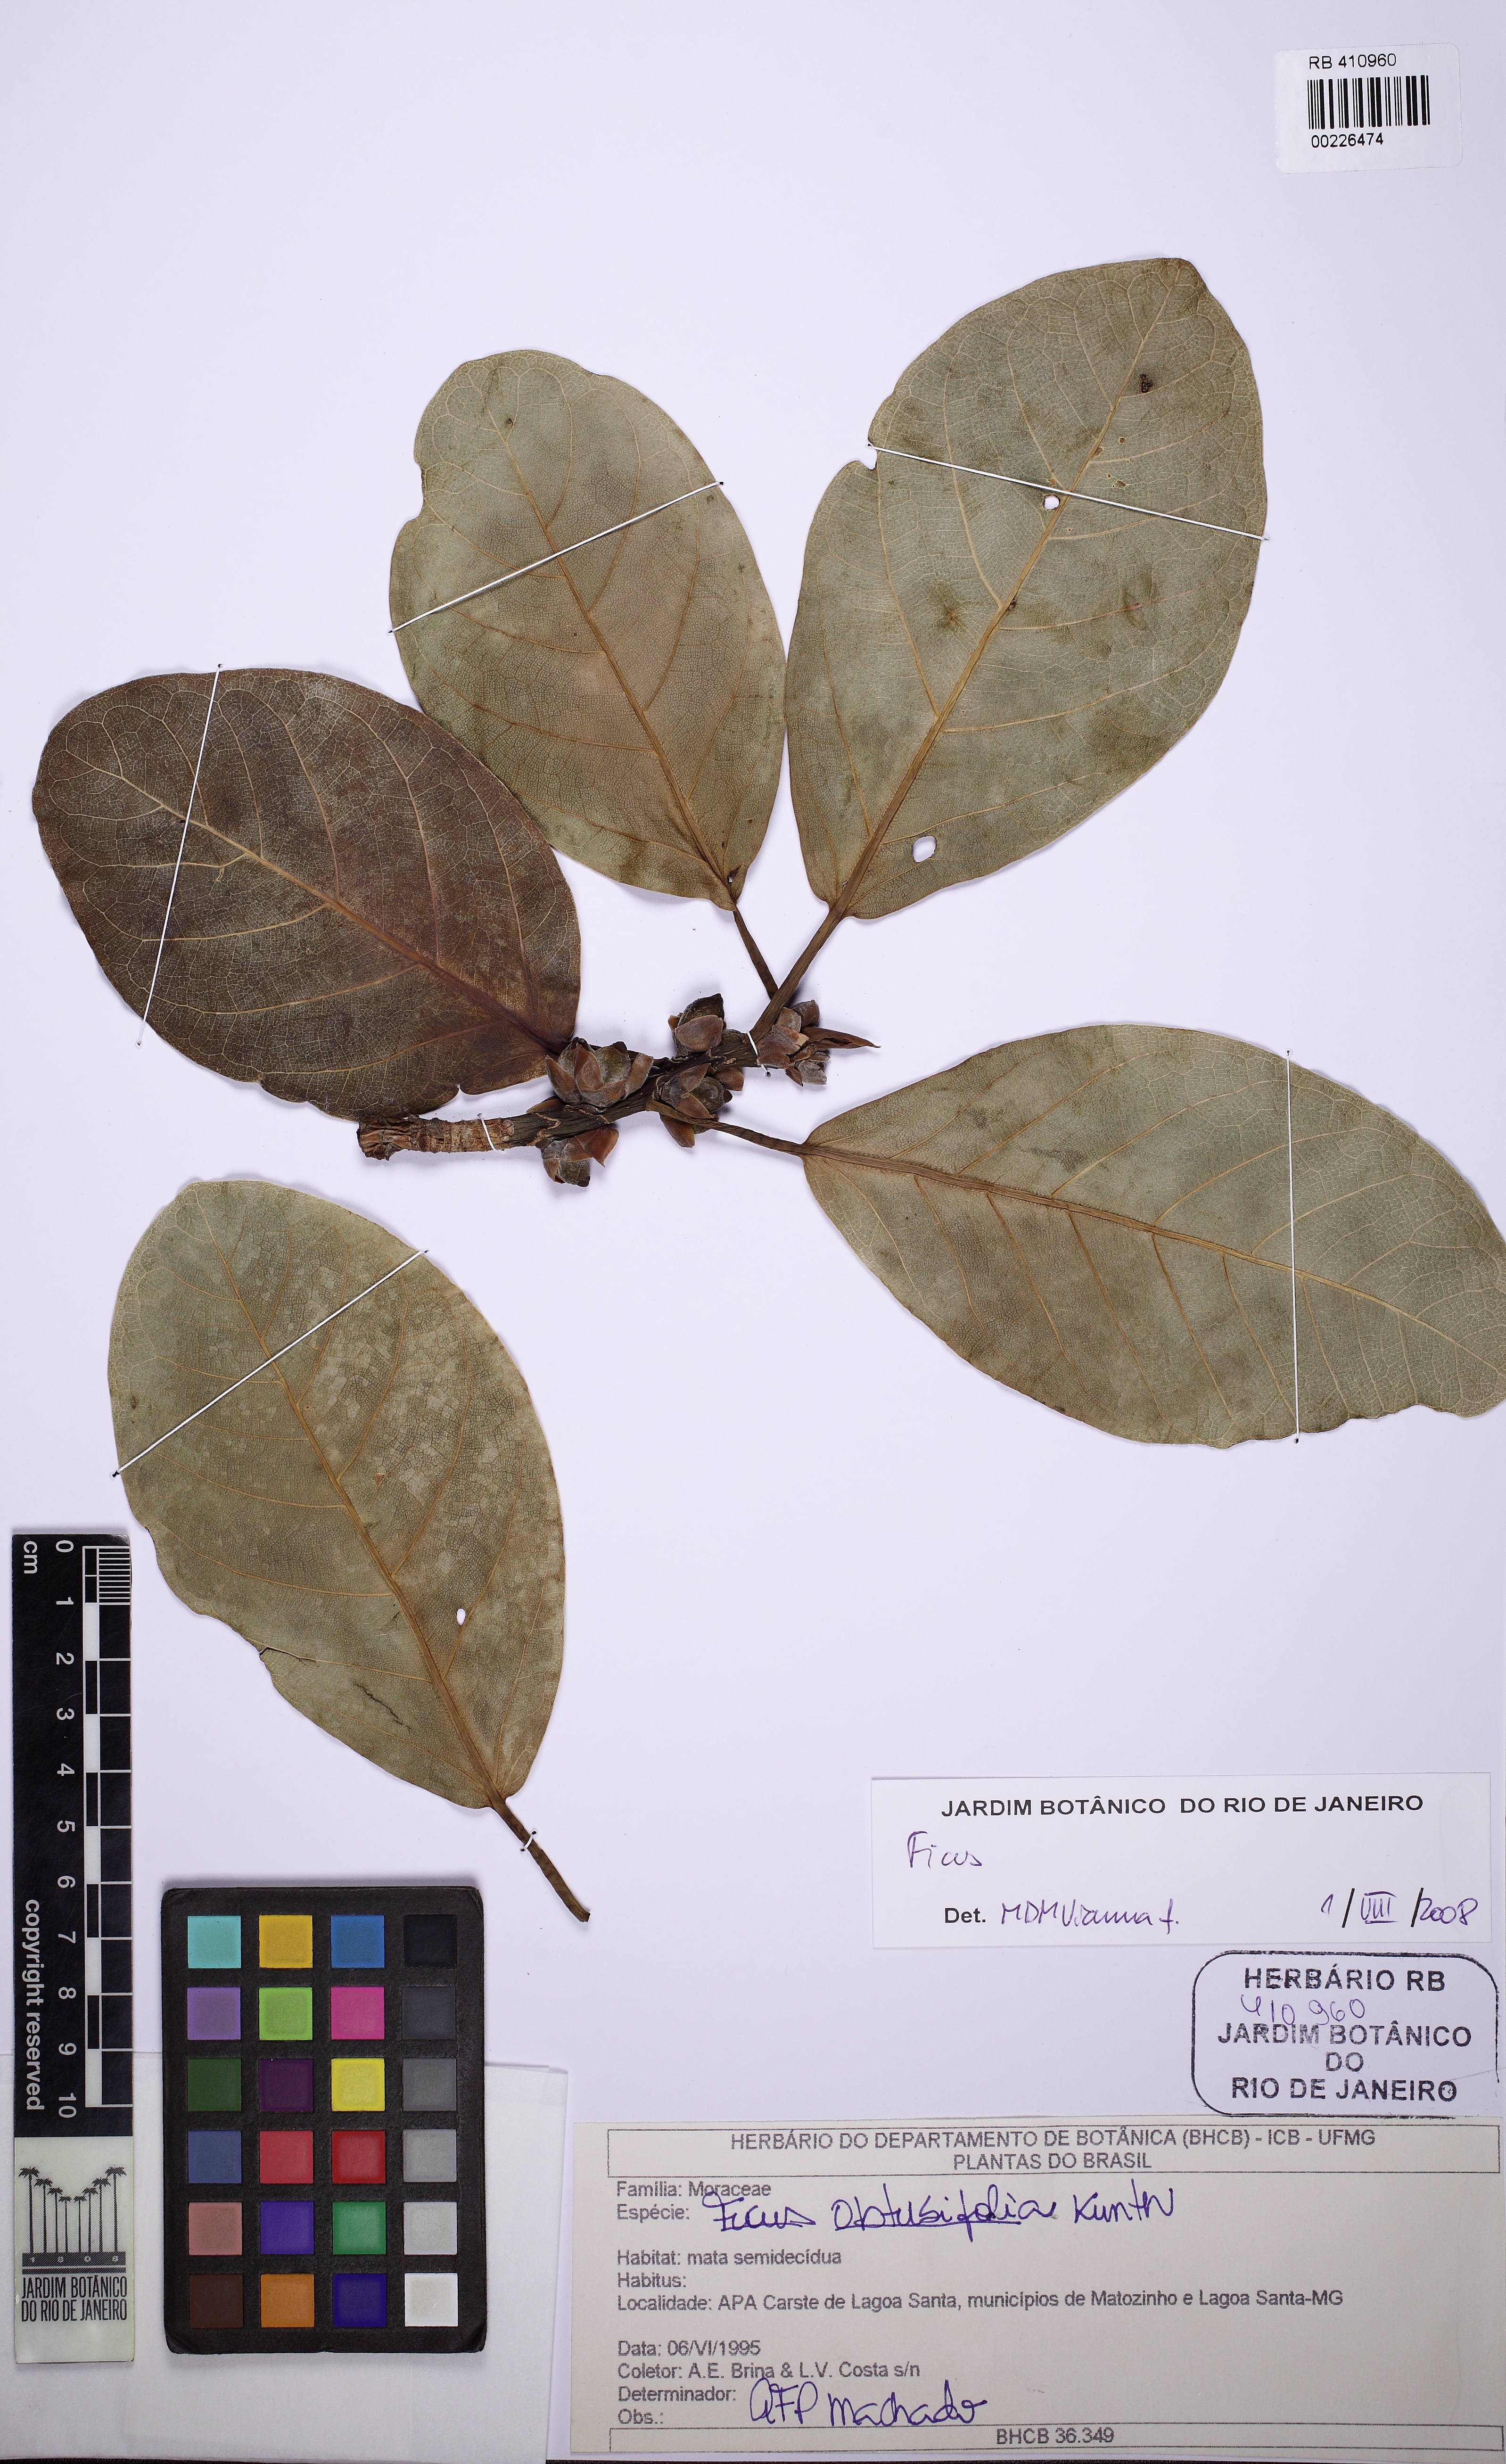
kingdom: Plantae
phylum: Tracheophyta
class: Magnoliopsida
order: Rosales
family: Moraceae
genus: Ficus
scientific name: Ficus obtusifolia
